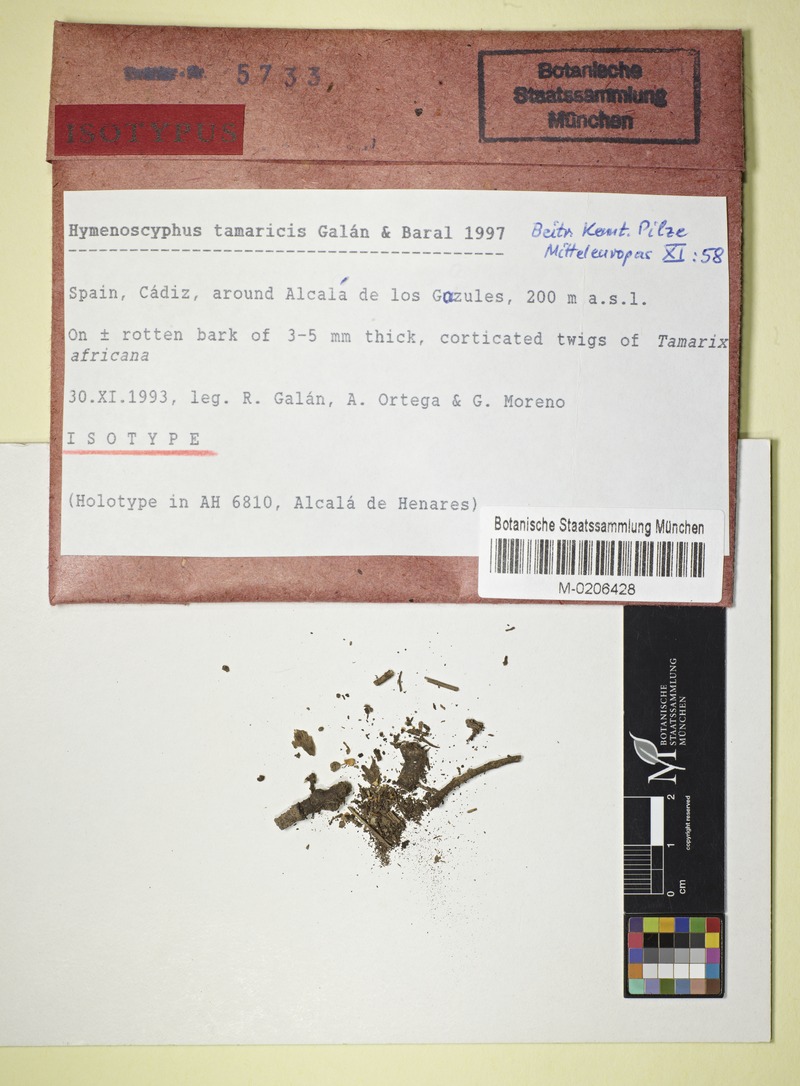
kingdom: Fungi
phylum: Ascomycota
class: Leotiomycetes
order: Helotiales
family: Helotiaceae
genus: Hymenoscyphus
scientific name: Hymenoscyphus tamaricis
